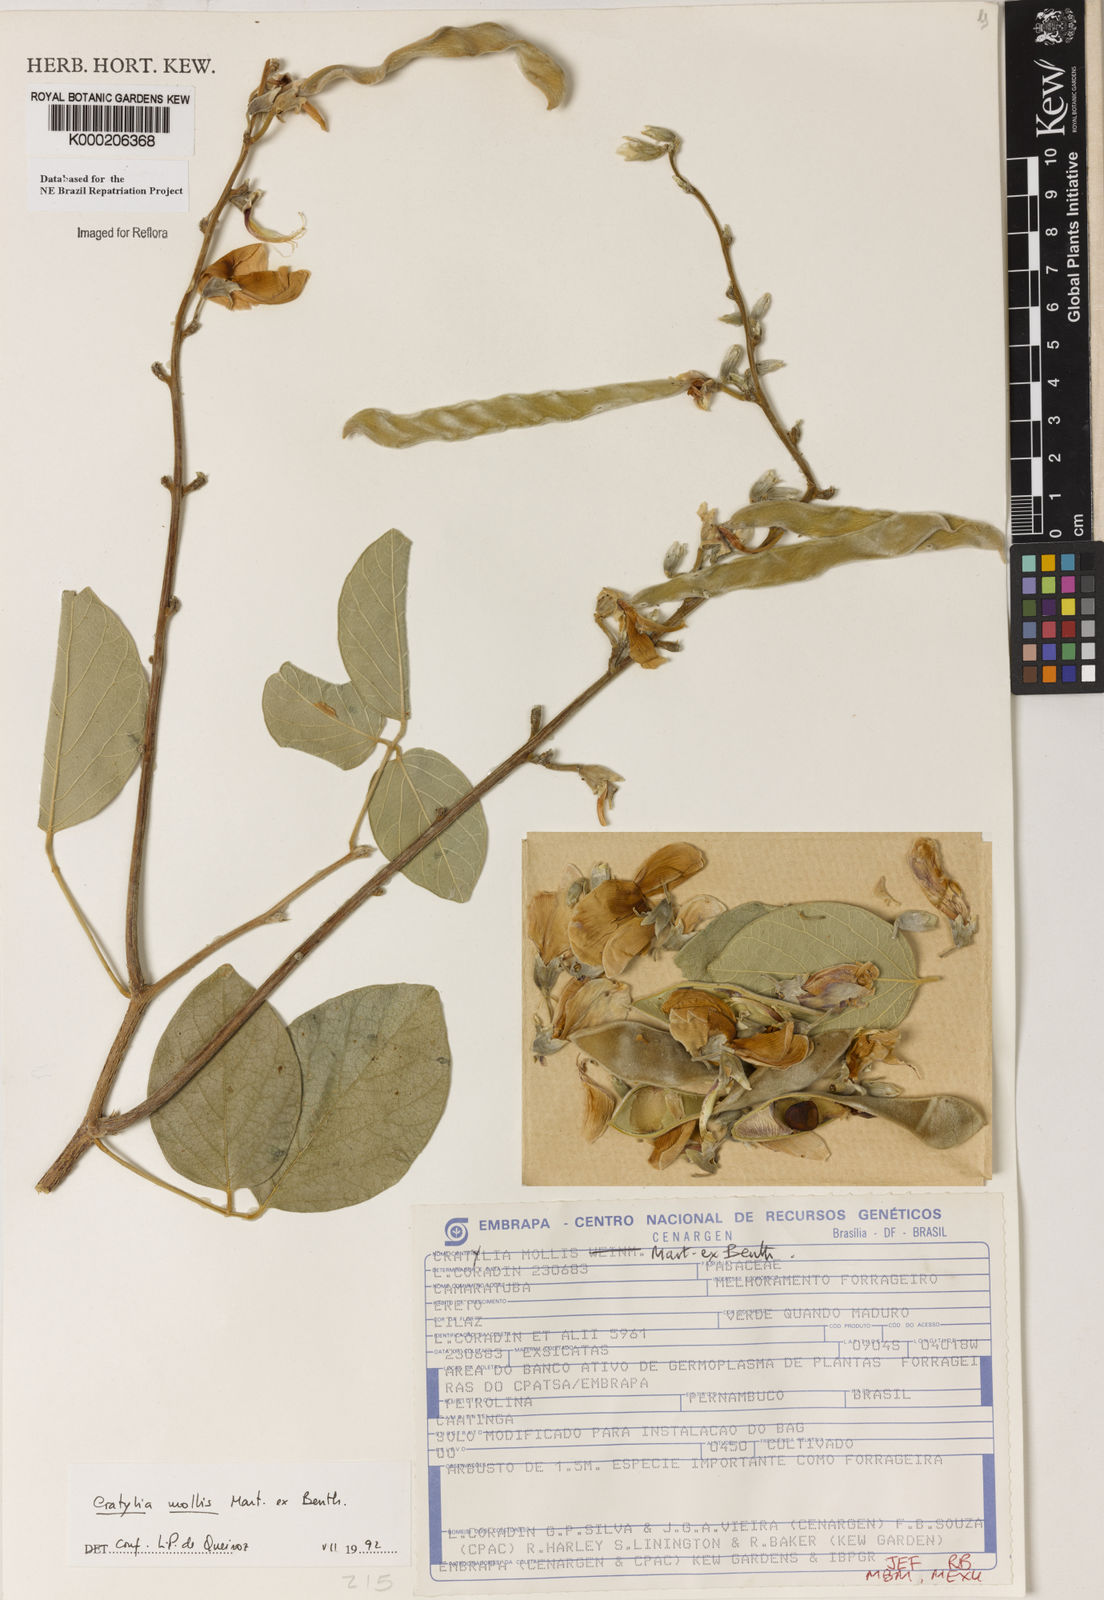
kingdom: Plantae
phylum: Tracheophyta
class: Magnoliopsida
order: Fabales
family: Fabaceae
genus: Cratylia
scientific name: Cratylia mollis
